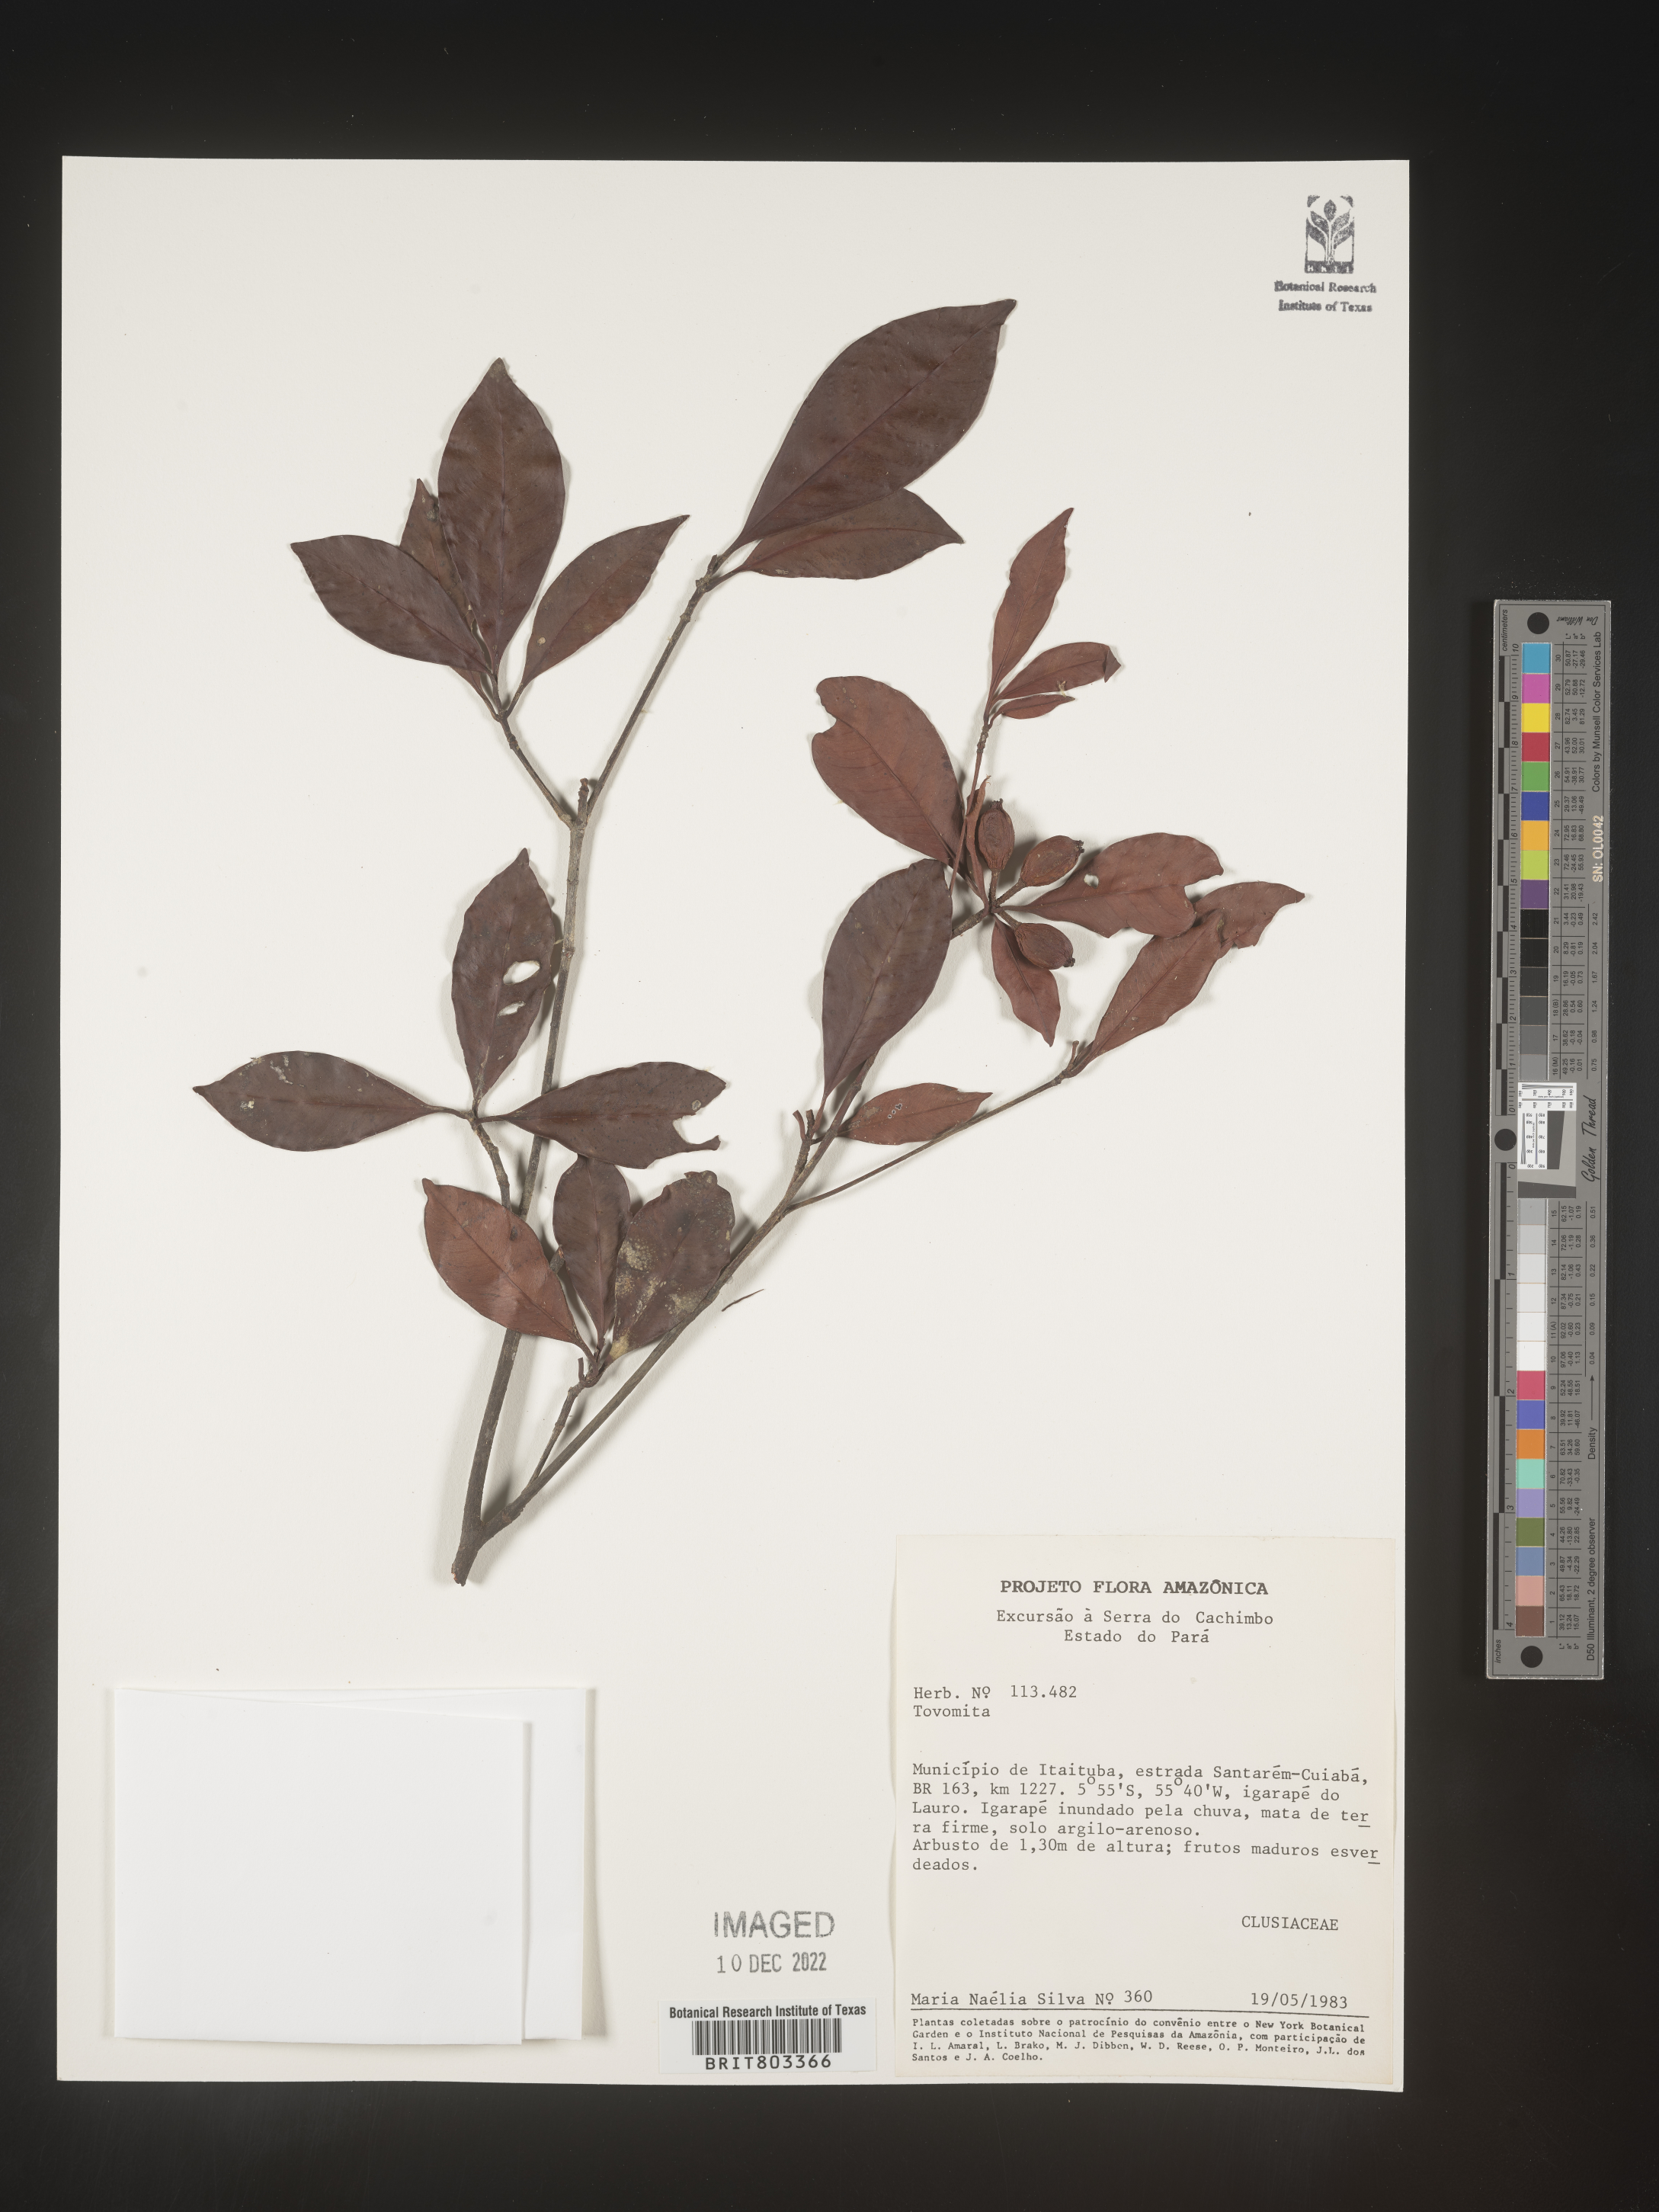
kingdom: Plantae
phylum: Tracheophyta
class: Magnoliopsida
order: Malpighiales
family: Clusiaceae
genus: Tovomita
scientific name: Tovomita
